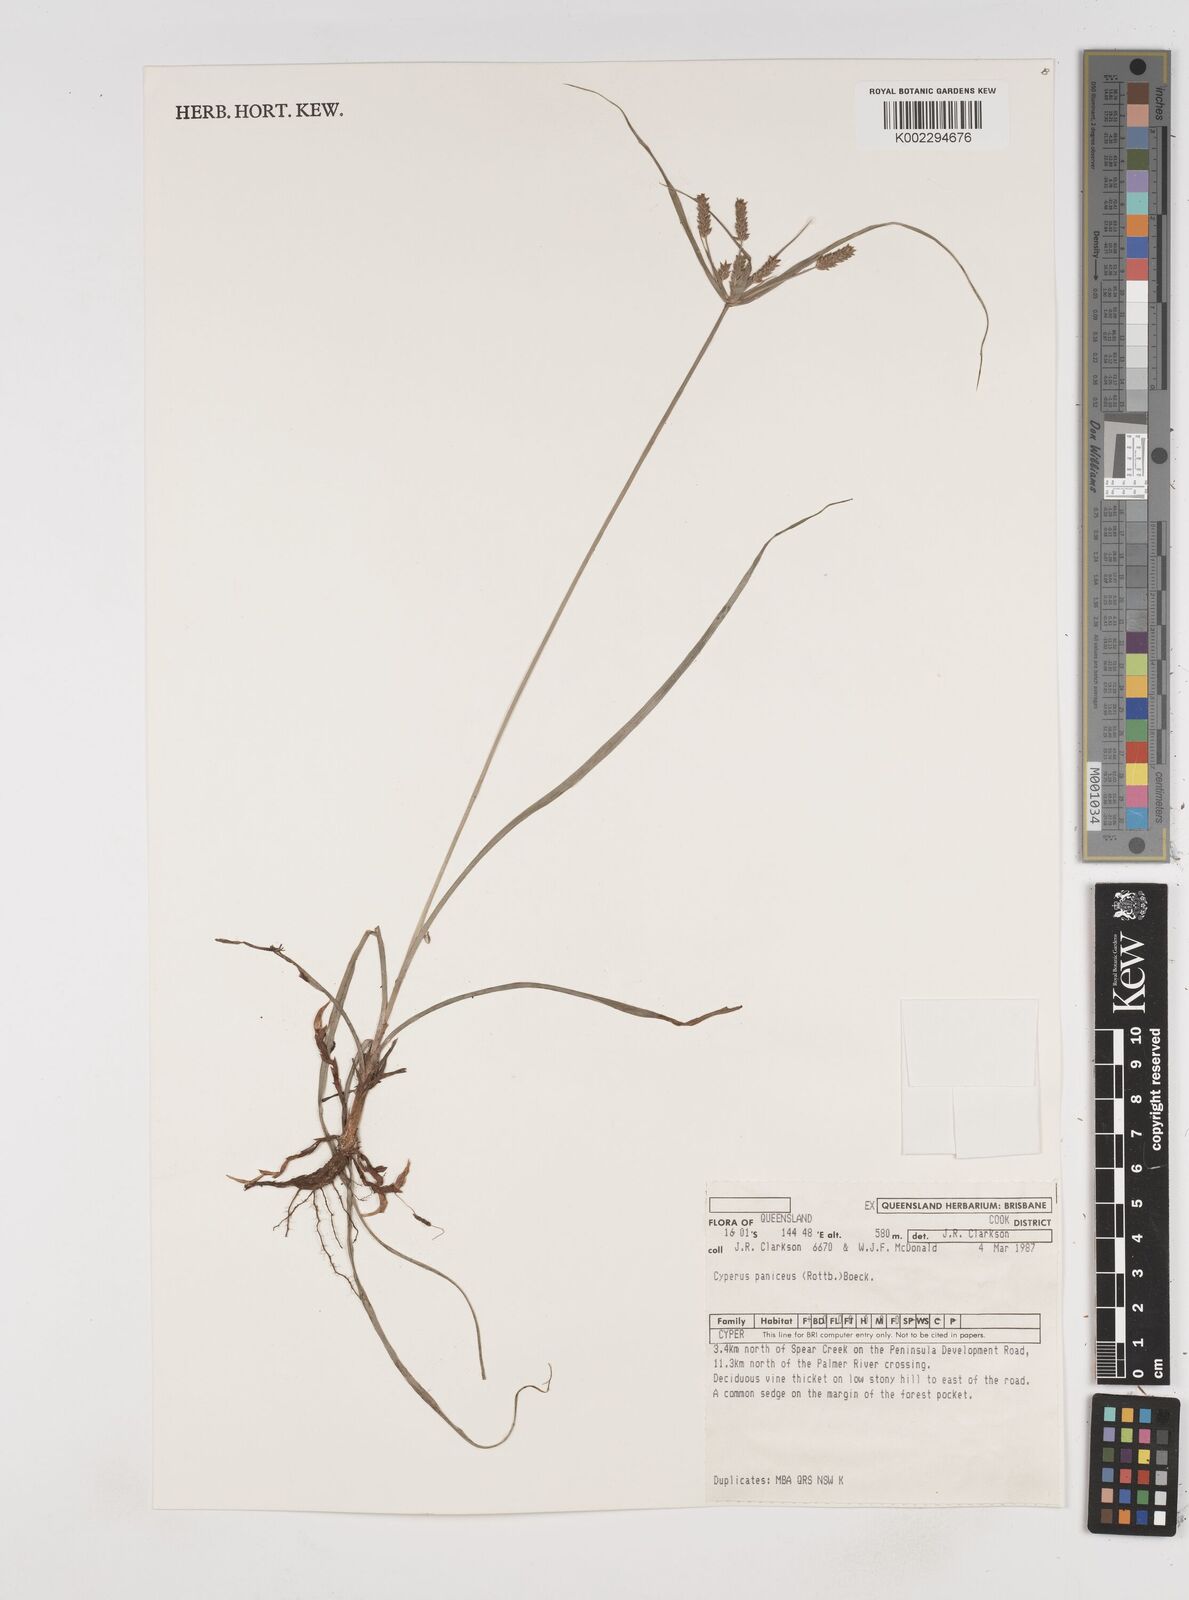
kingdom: Plantae
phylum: Tracheophyta
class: Liliopsida
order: Poales
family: Cyperaceae
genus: Cyperus
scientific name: Cyperus paniceus
